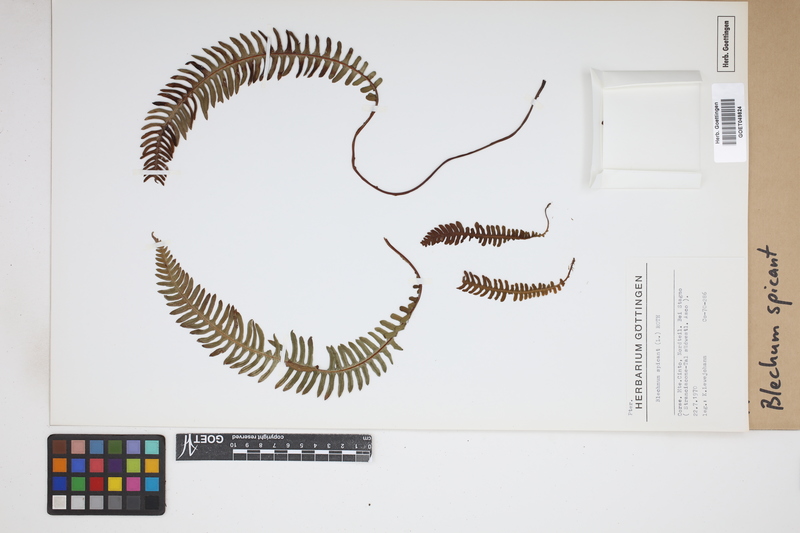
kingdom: Plantae
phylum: Tracheophyta
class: Polypodiopsida
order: Polypodiales
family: Blechnaceae
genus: Struthiopteris
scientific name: Struthiopteris spicant
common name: Deer fern
